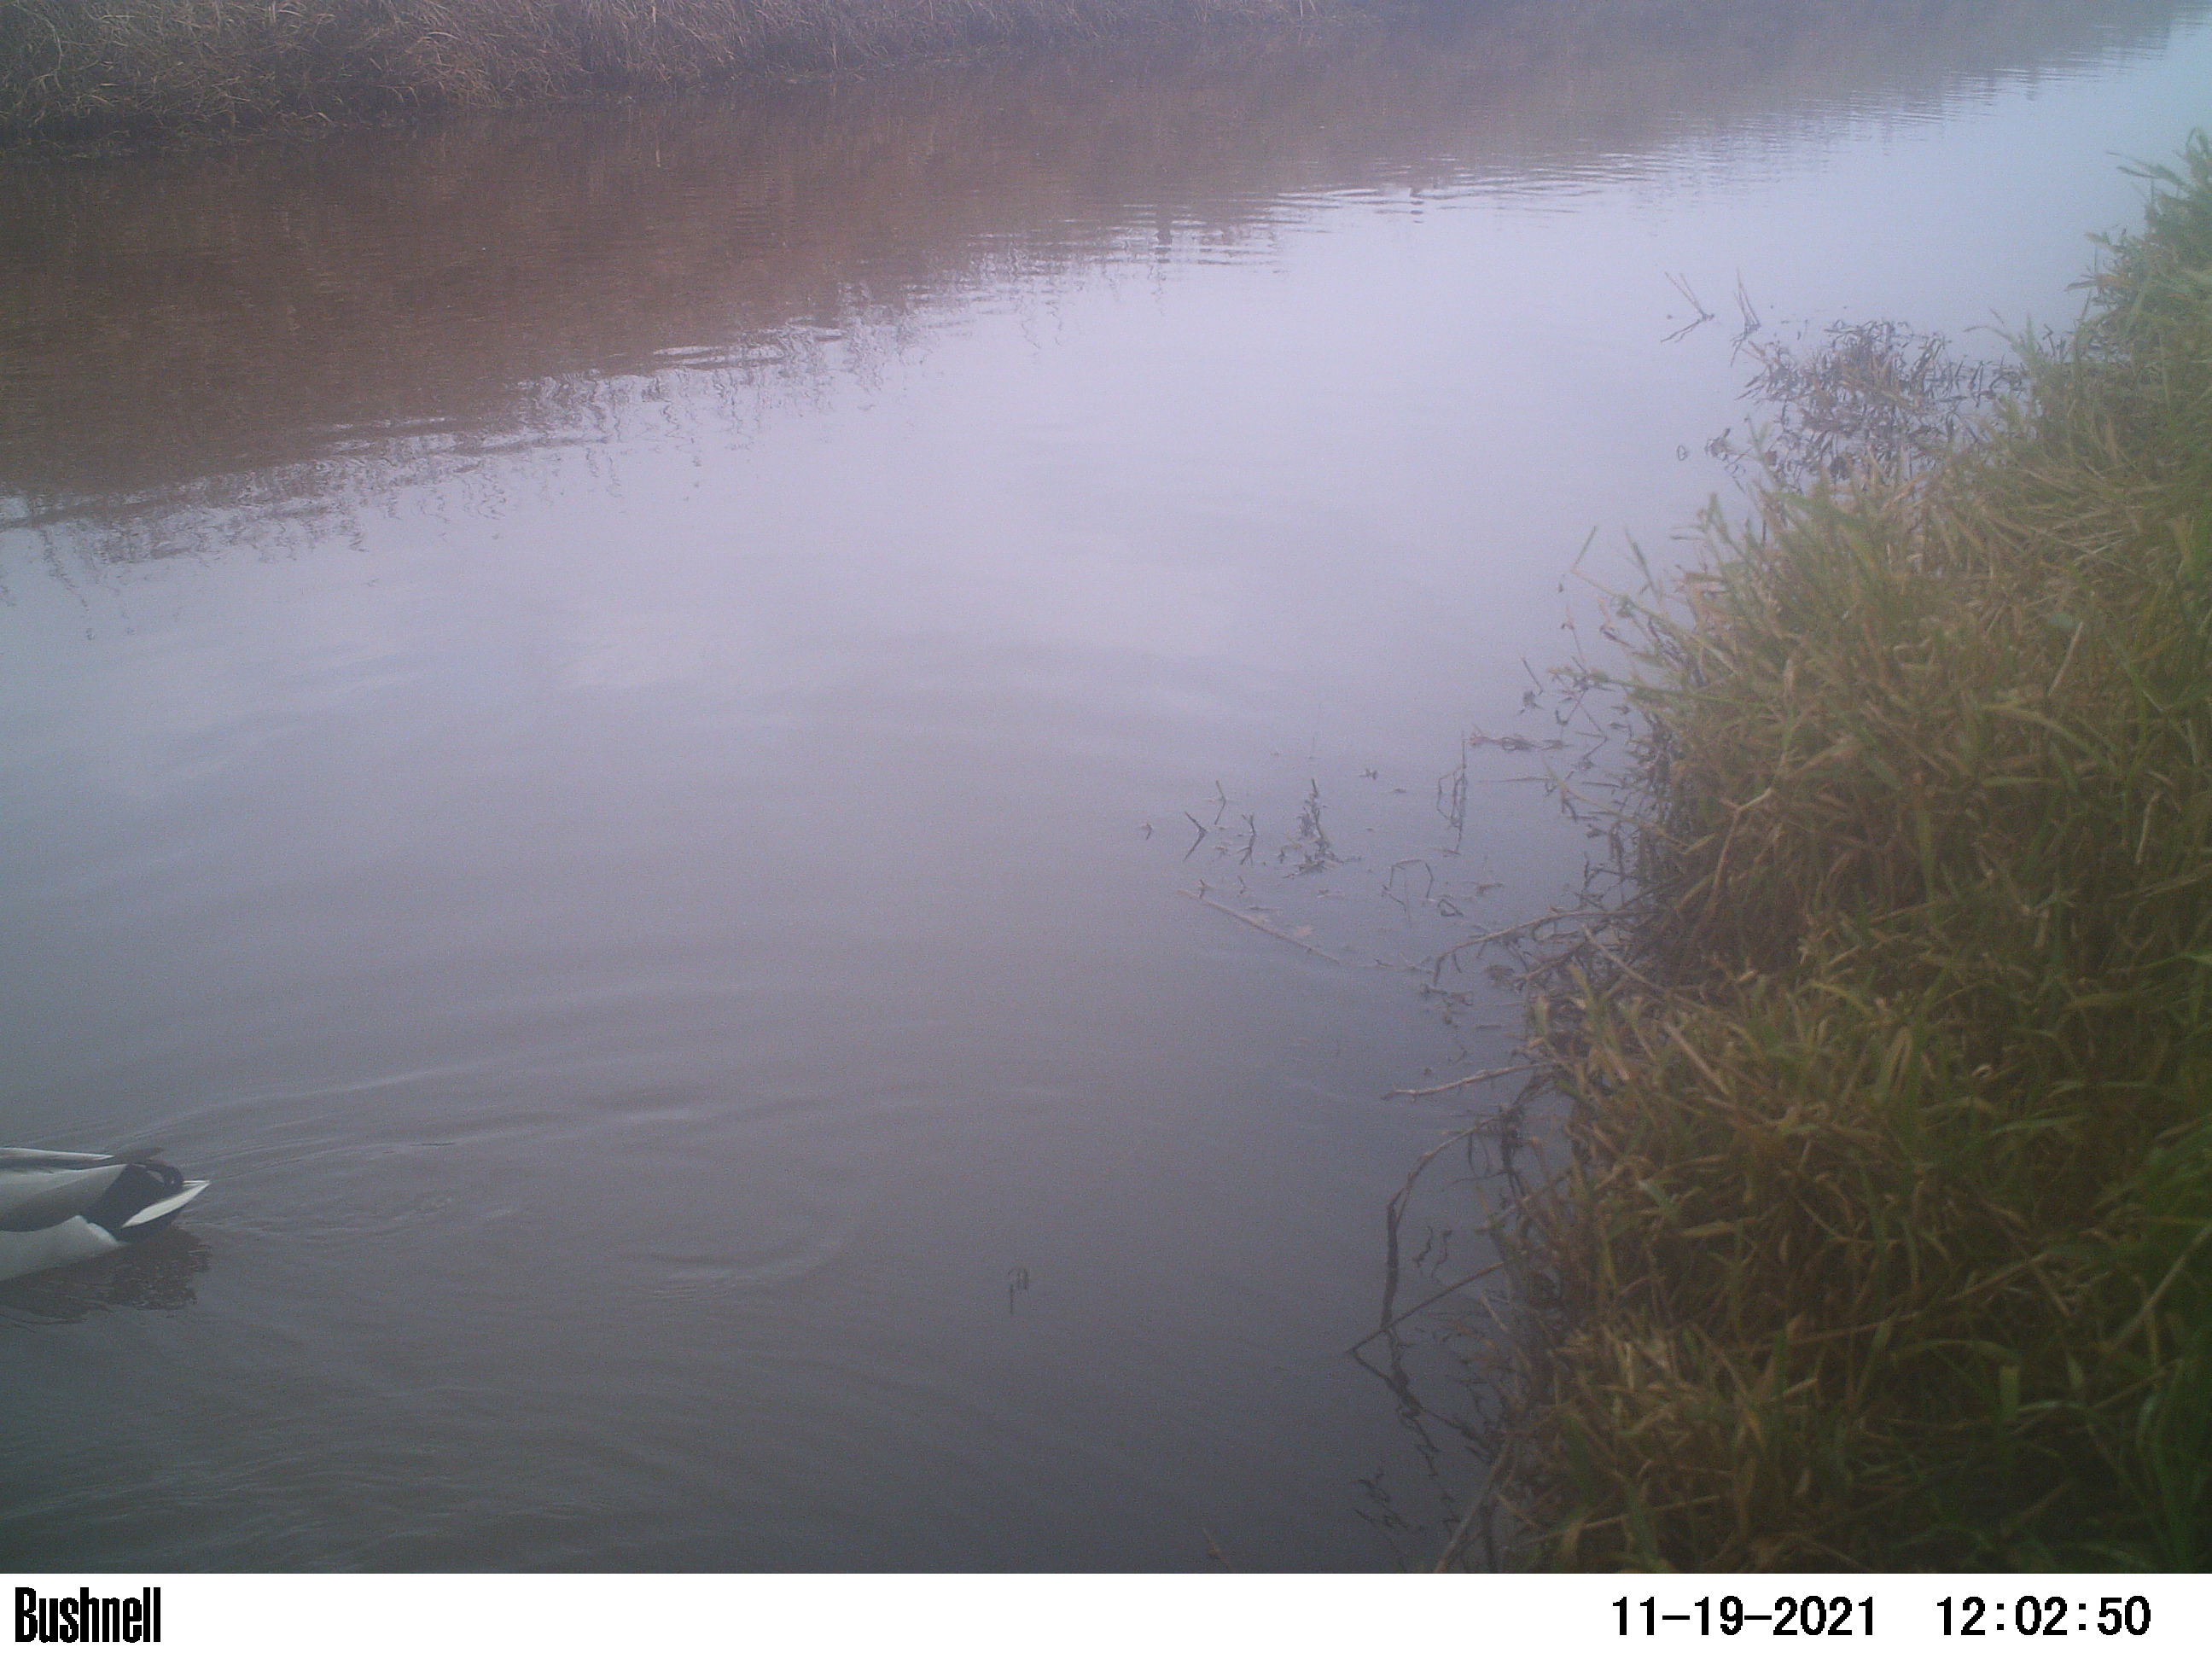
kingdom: Animalia
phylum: Chordata
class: Aves
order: Anseriformes
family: Anatidae
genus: Anas
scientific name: Anas
